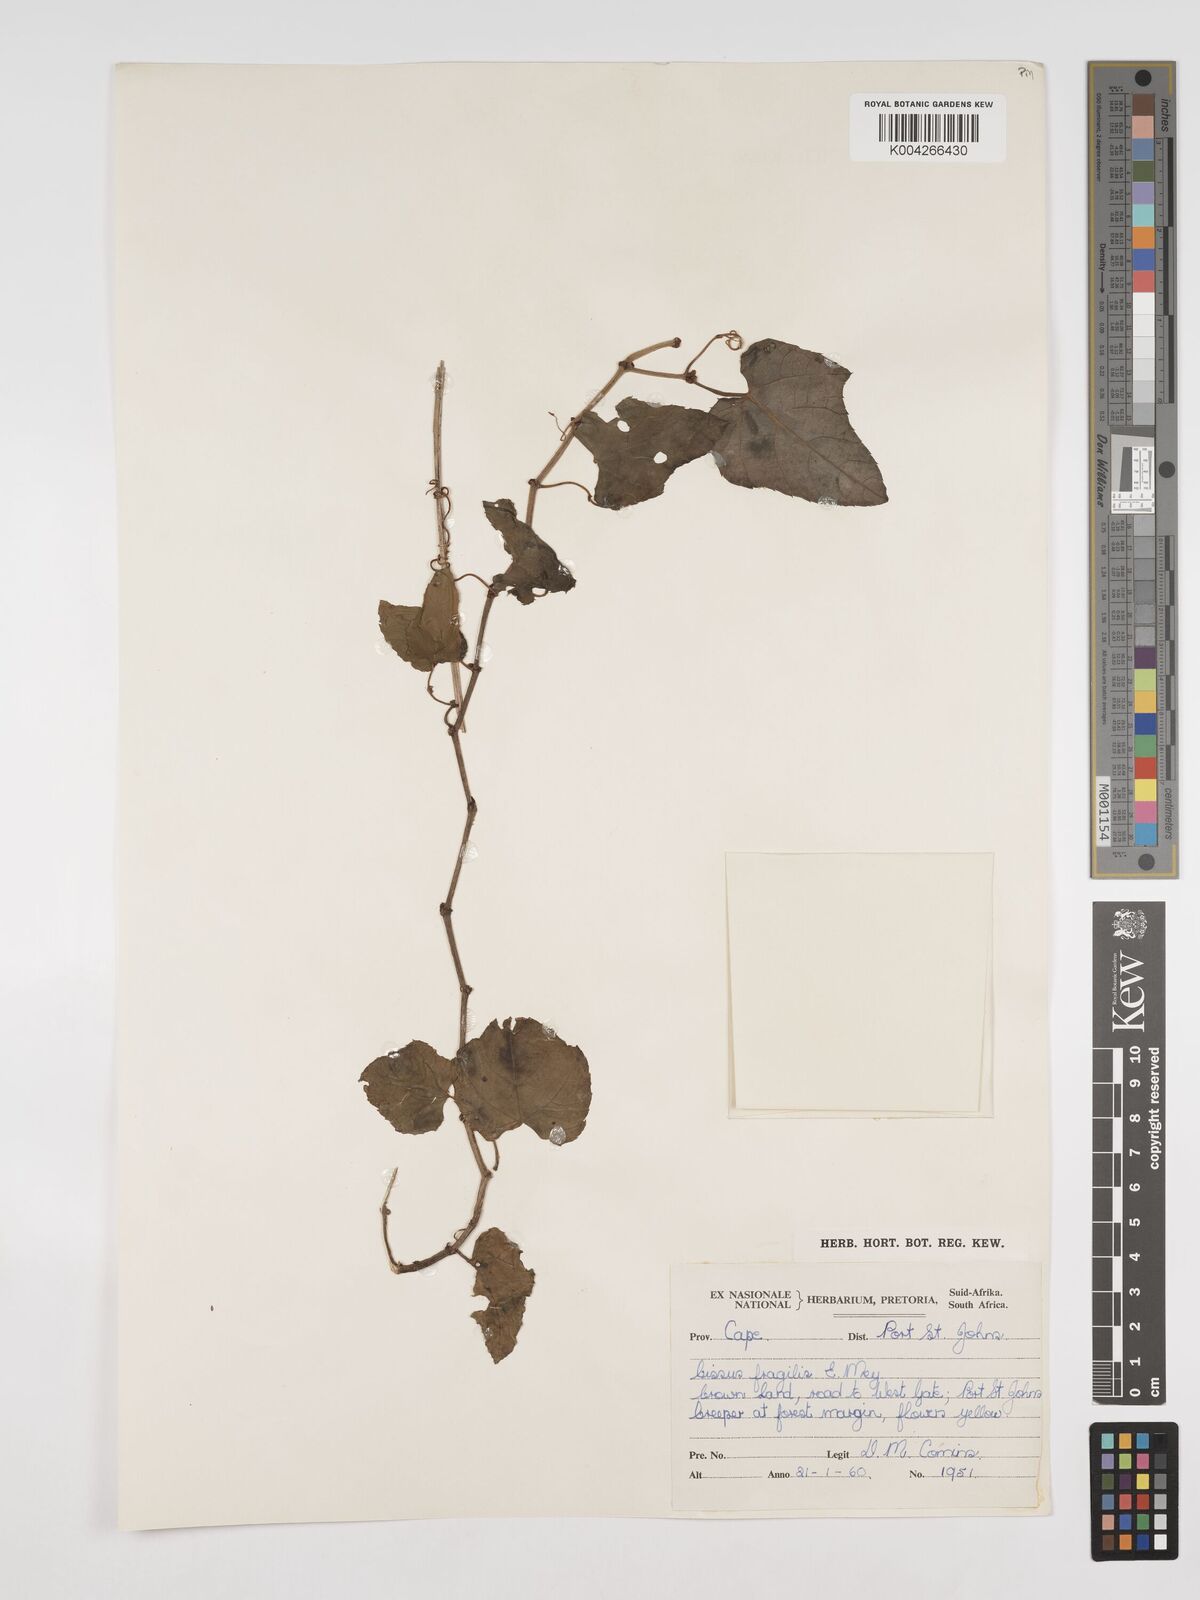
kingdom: Plantae
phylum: Tracheophyta
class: Magnoliopsida
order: Vitales
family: Vitaceae
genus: Cissus
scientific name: Cissus fragilis
